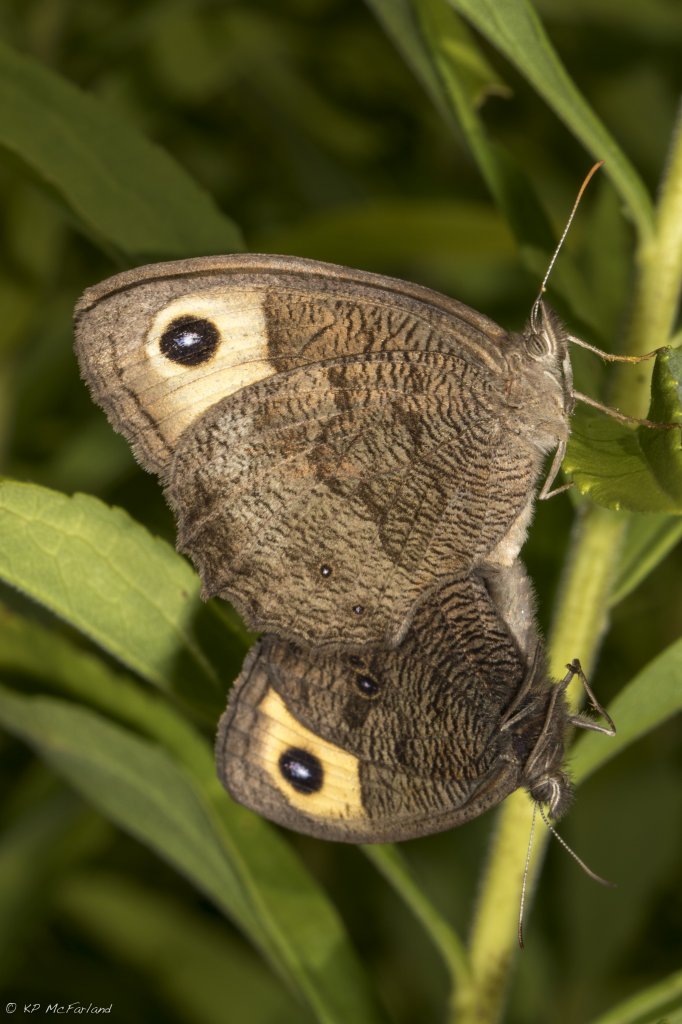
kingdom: Animalia
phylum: Arthropoda
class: Insecta
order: Lepidoptera
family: Nymphalidae
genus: Cercyonis
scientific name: Cercyonis pegala
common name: Common Wood-Nymph
